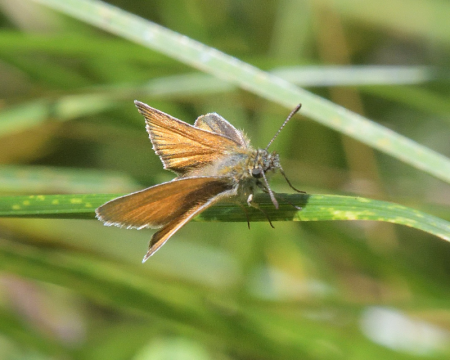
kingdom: Animalia
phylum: Arthropoda
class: Insecta
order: Lepidoptera
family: Hesperiidae
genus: Thymelicus
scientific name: Thymelicus lineola
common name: European Skipper
